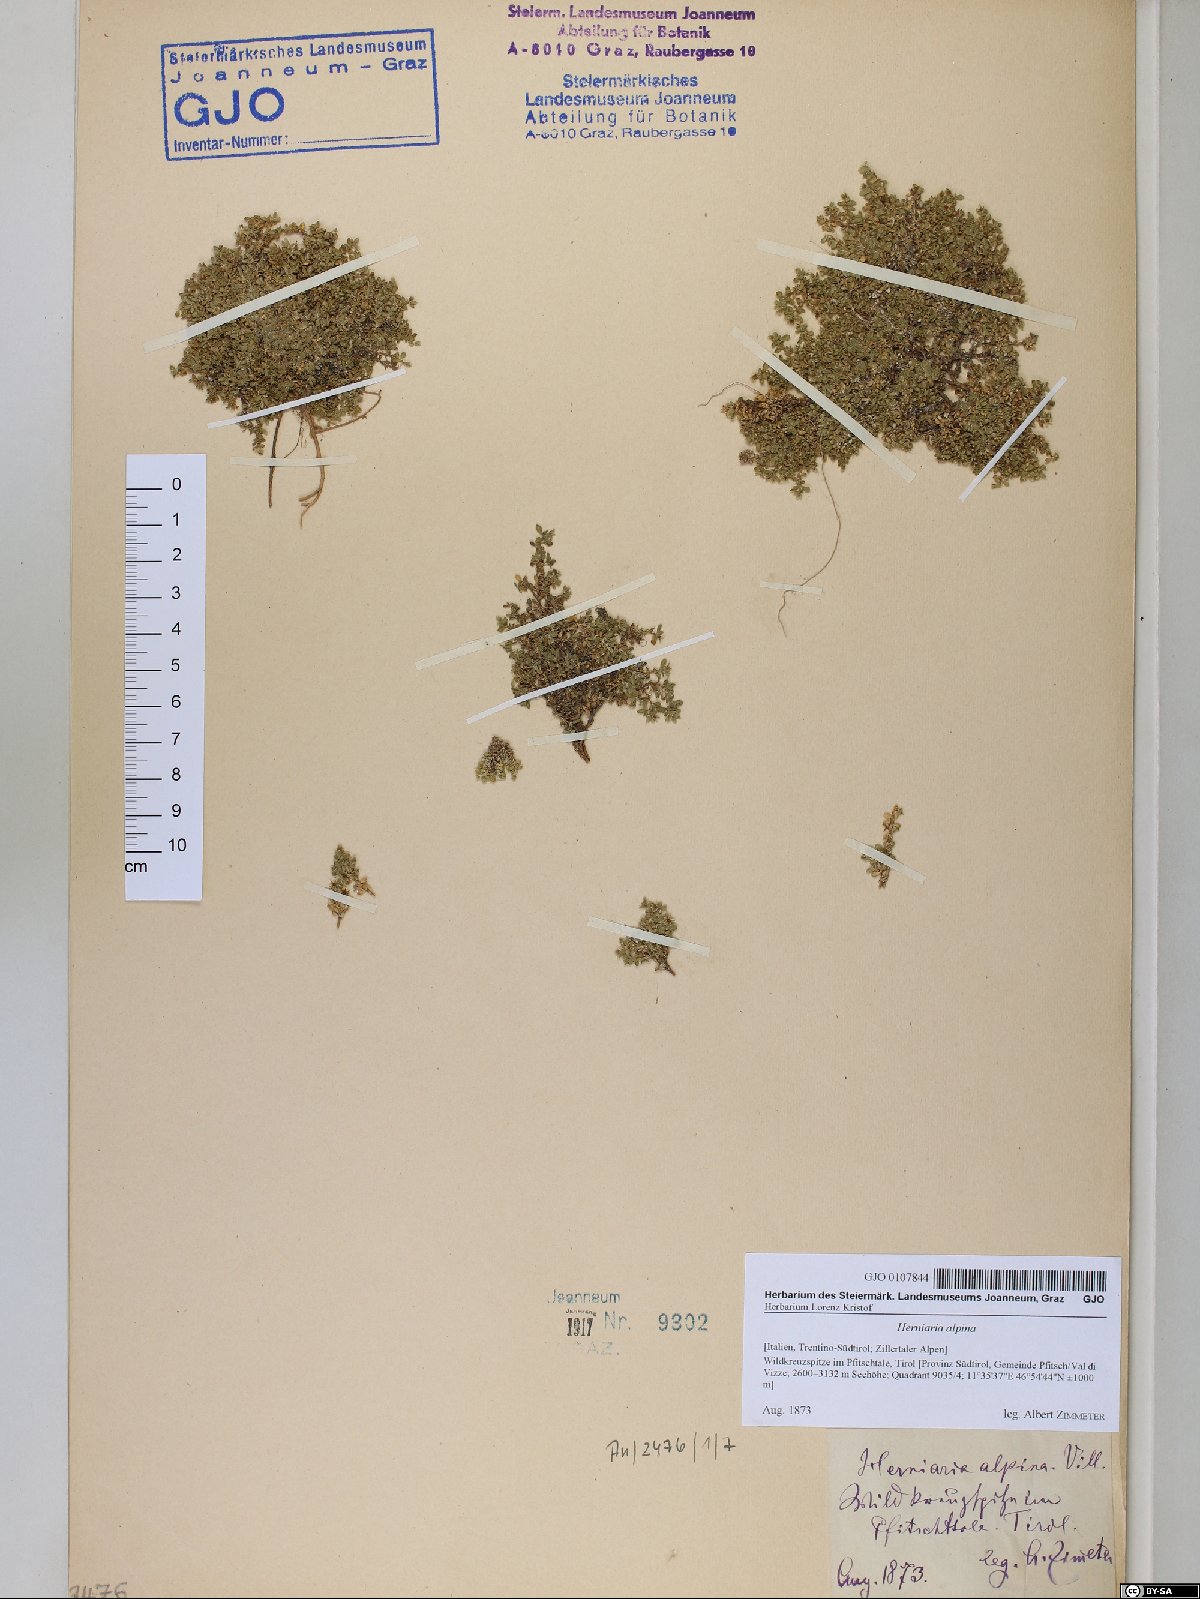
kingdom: Plantae
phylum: Tracheophyta
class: Magnoliopsida
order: Caryophyllales
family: Caryophyllaceae
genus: Herniaria
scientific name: Herniaria alpina
